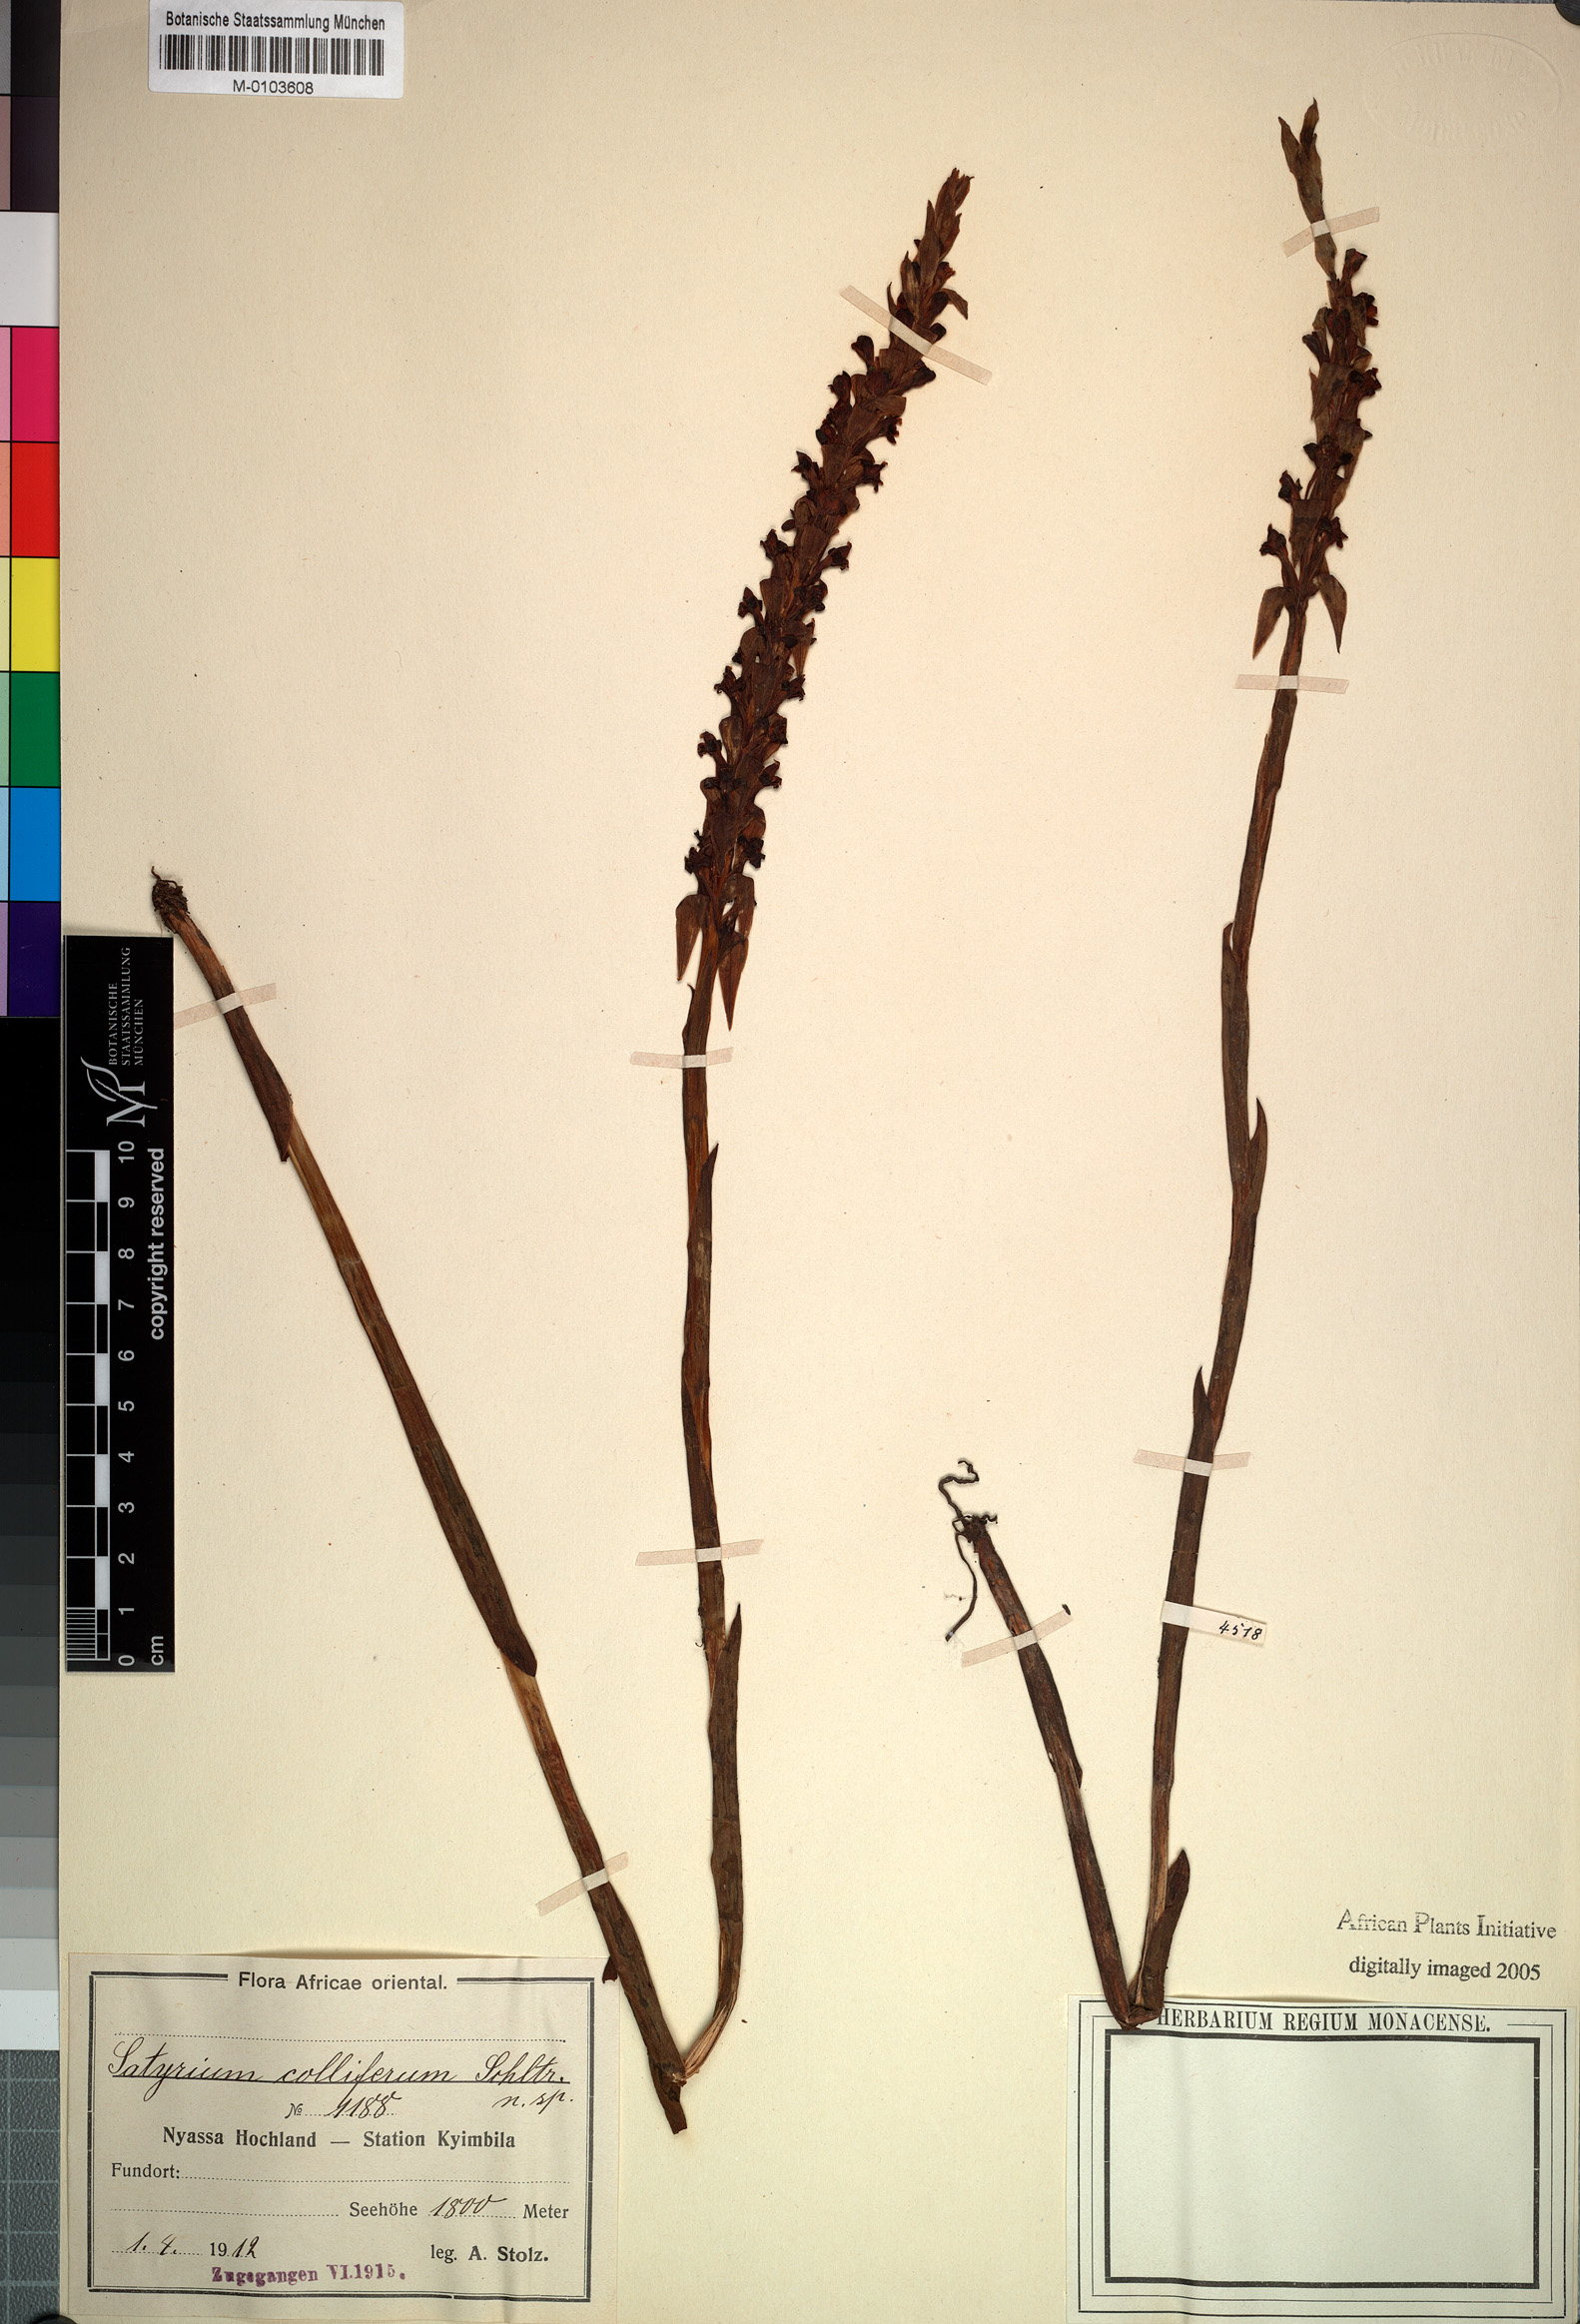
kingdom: Plantae
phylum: Tracheophyta
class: Liliopsida
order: Asparagales
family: Orchidaceae
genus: Satyrium
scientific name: Satyrium neglectum
